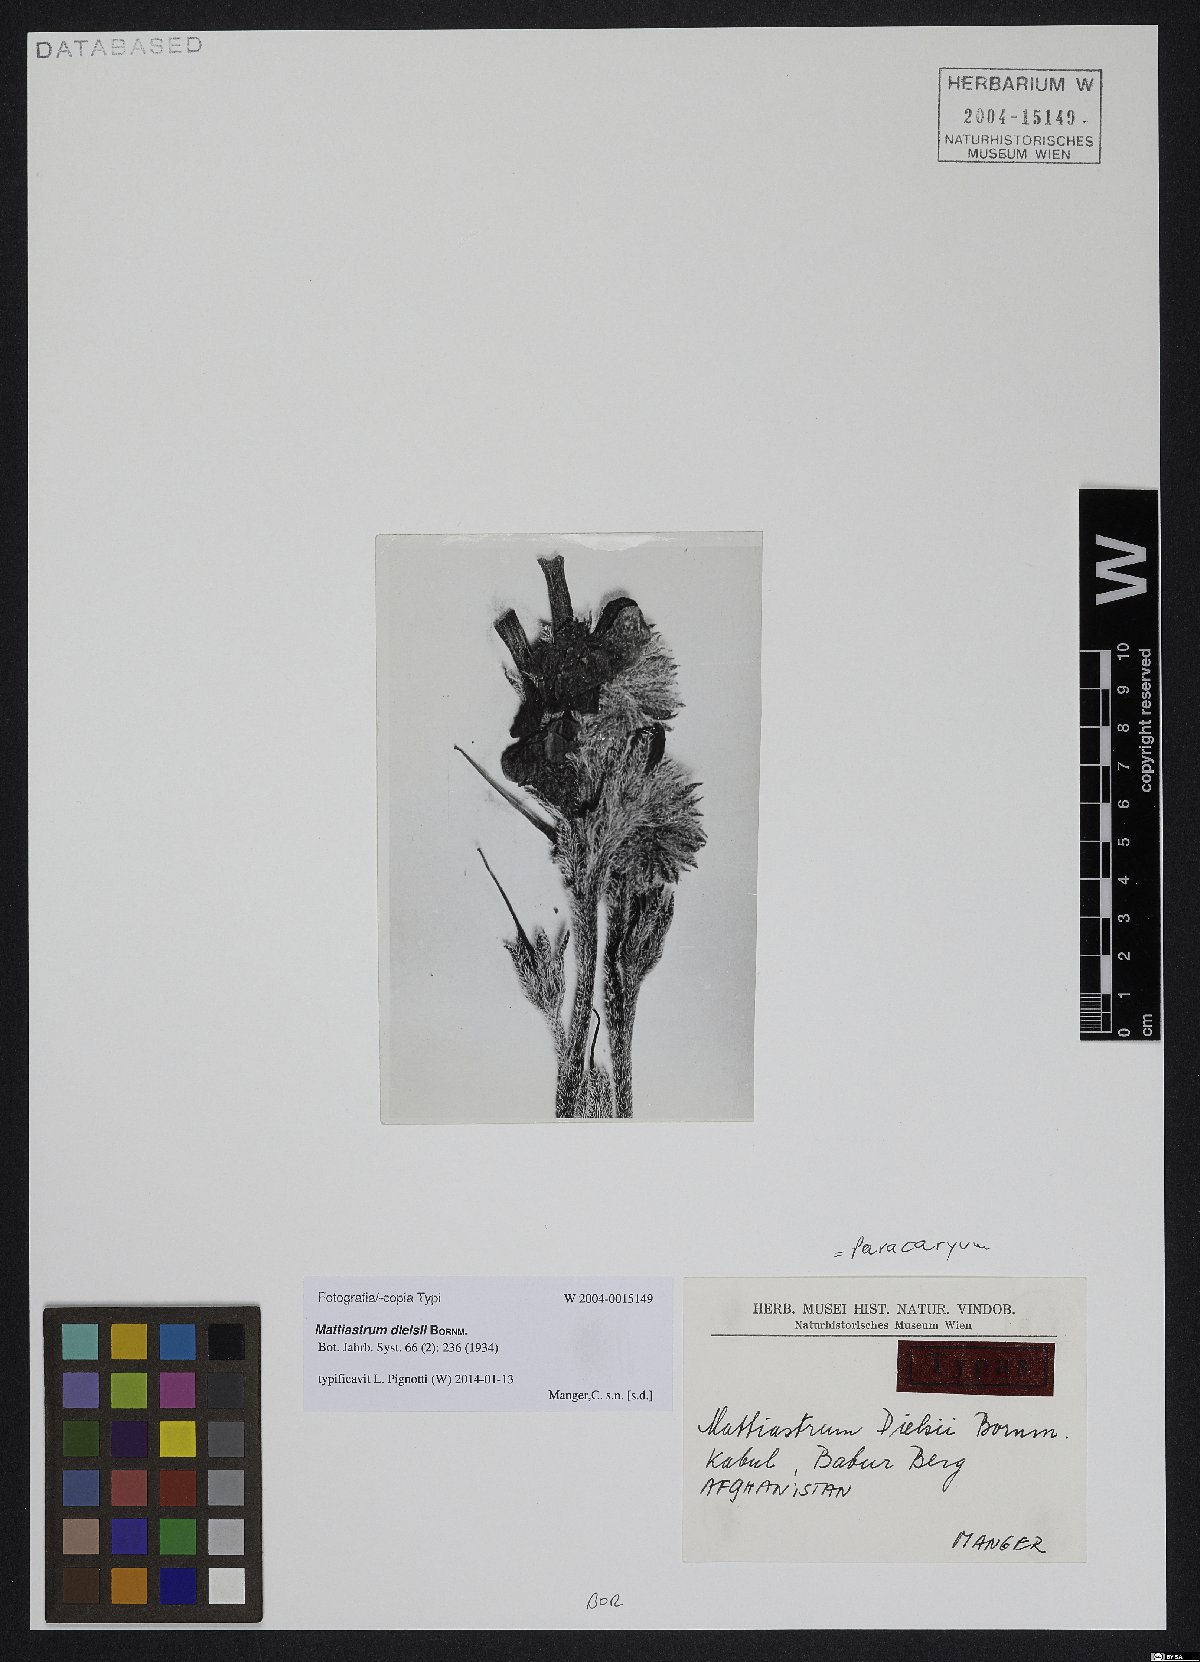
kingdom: Plantae
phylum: Tracheophyta
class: Magnoliopsida
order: Boraginales
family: Boraginaceae
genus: Paracaryum
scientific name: Paracaryum dielsii
